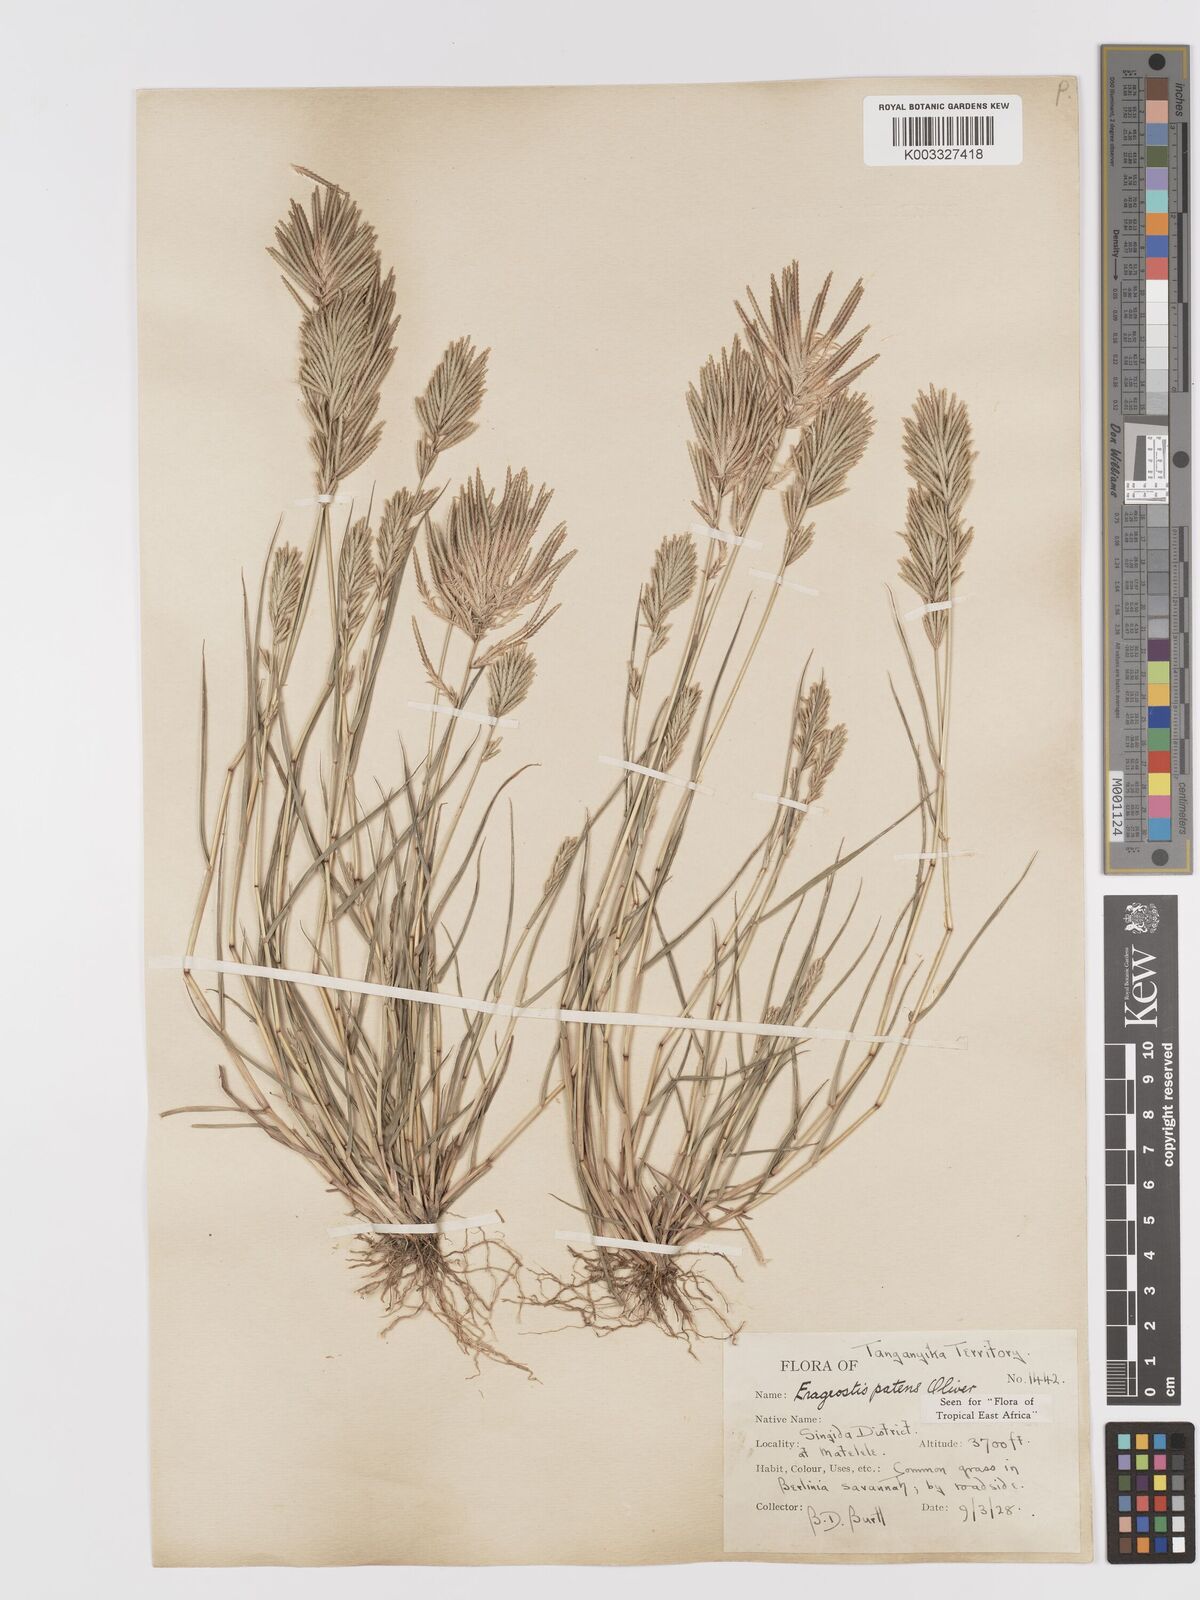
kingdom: Plantae
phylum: Tracheophyta
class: Liliopsida
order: Poales
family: Poaceae
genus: Eragrostis
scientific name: Eragrostis patens
